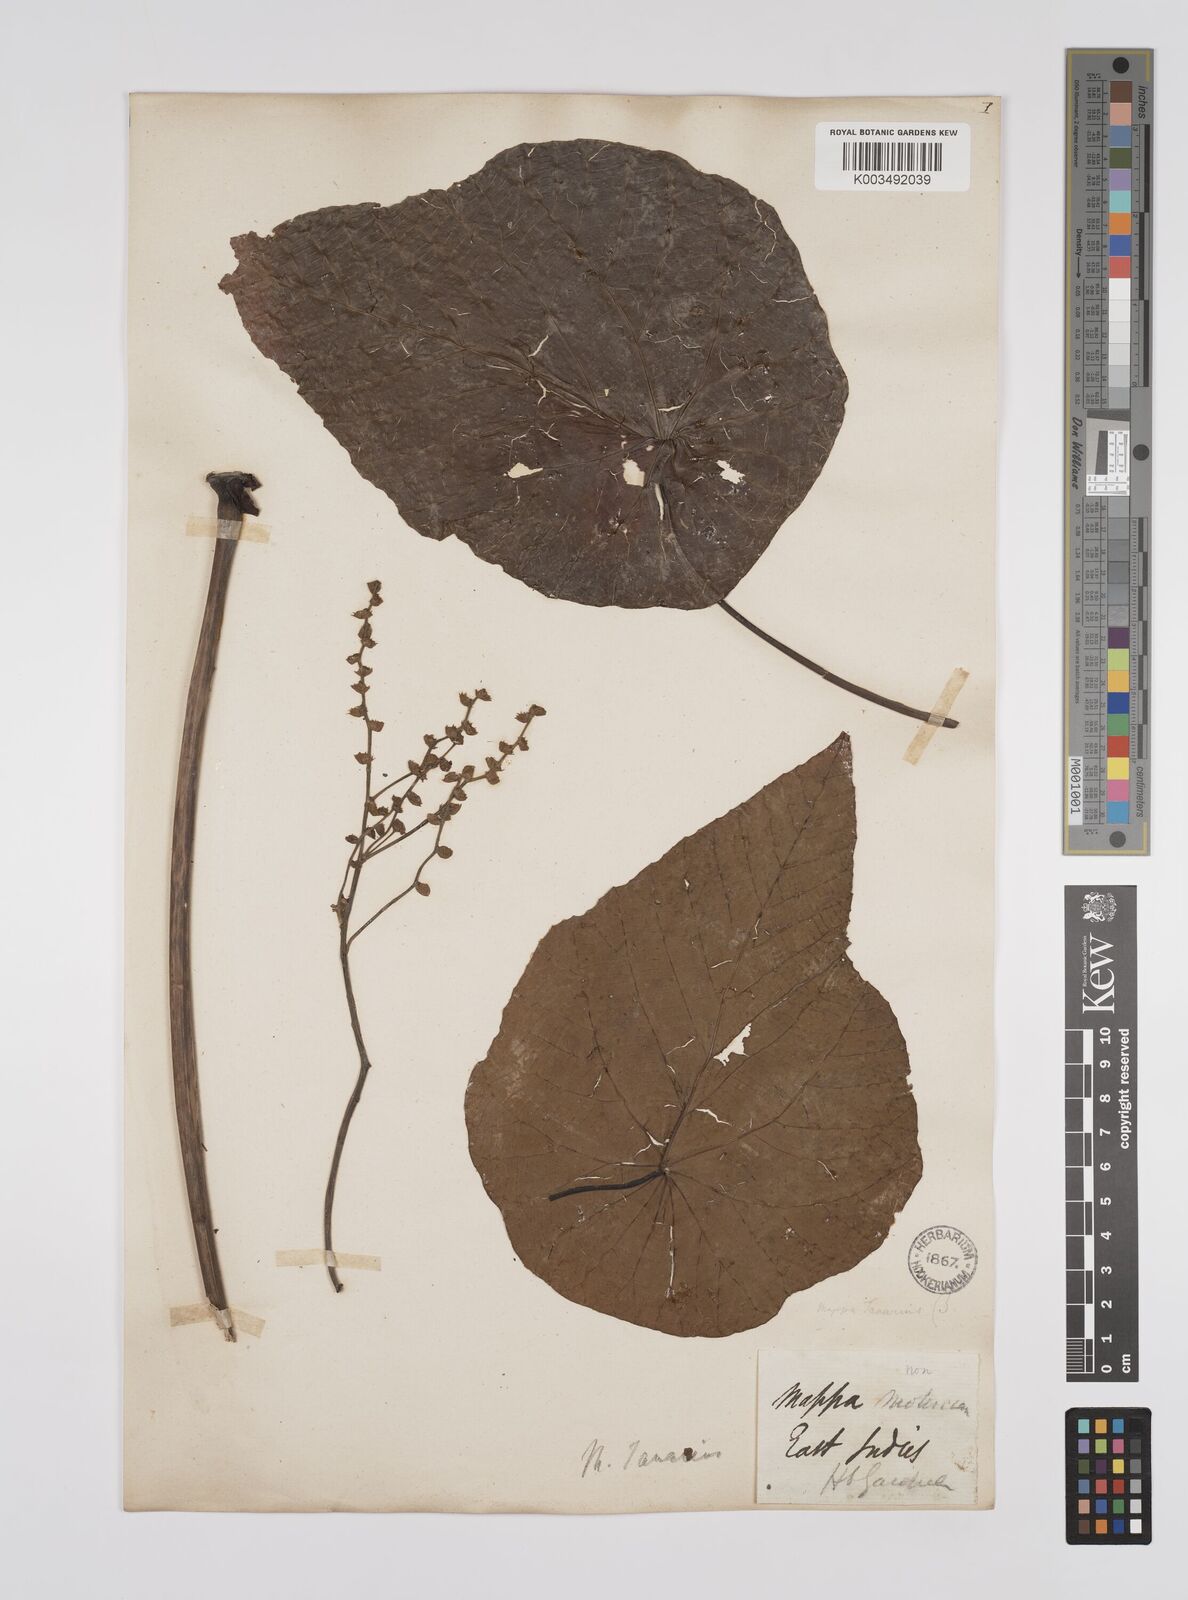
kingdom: Plantae
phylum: Tracheophyta
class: Magnoliopsida
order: Malpighiales
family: Euphorbiaceae
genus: Macaranga
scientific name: Macaranga tanarius
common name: Parasol leaf tree
